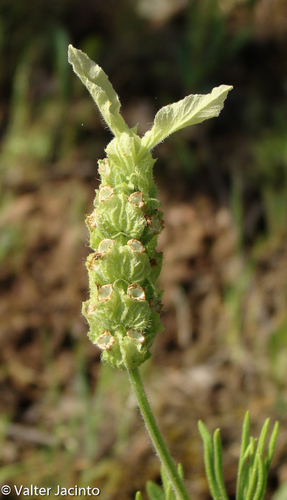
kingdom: Plantae
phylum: Tracheophyta
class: Magnoliopsida
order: Lamiales
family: Lamiaceae
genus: Lavandula
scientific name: Lavandula viridis
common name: Green spanish lavender
